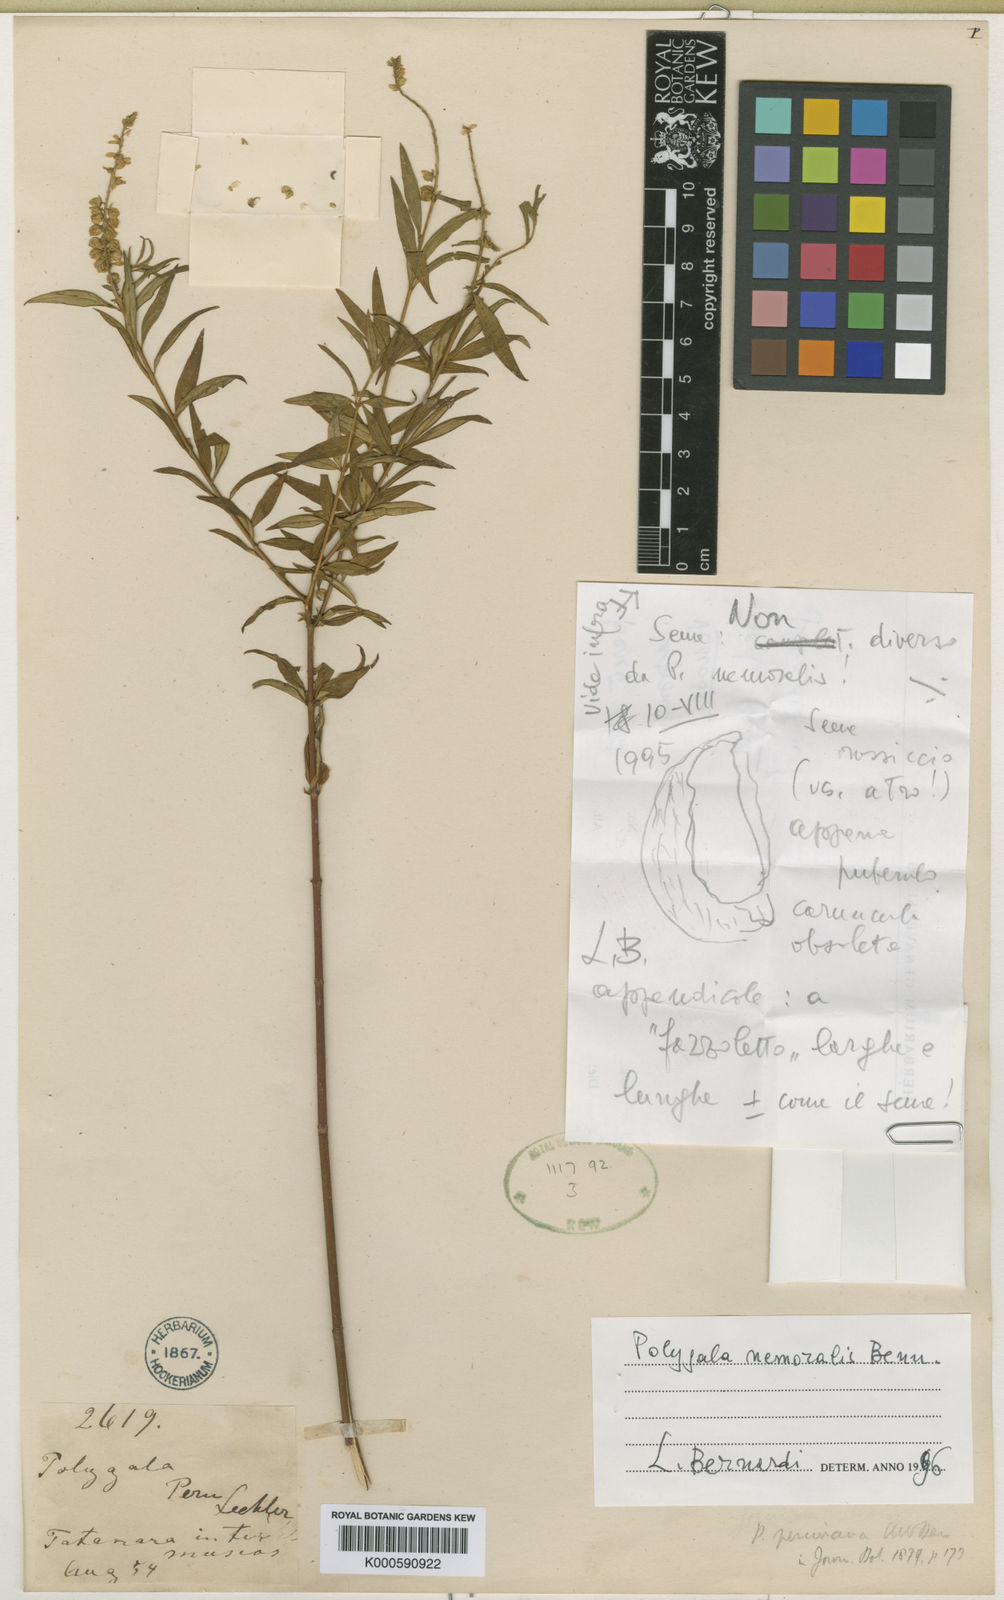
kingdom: Plantae
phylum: Tracheophyta
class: Magnoliopsida
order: Fabales
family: Polygalaceae
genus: Polygala
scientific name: Polygala peruviana
